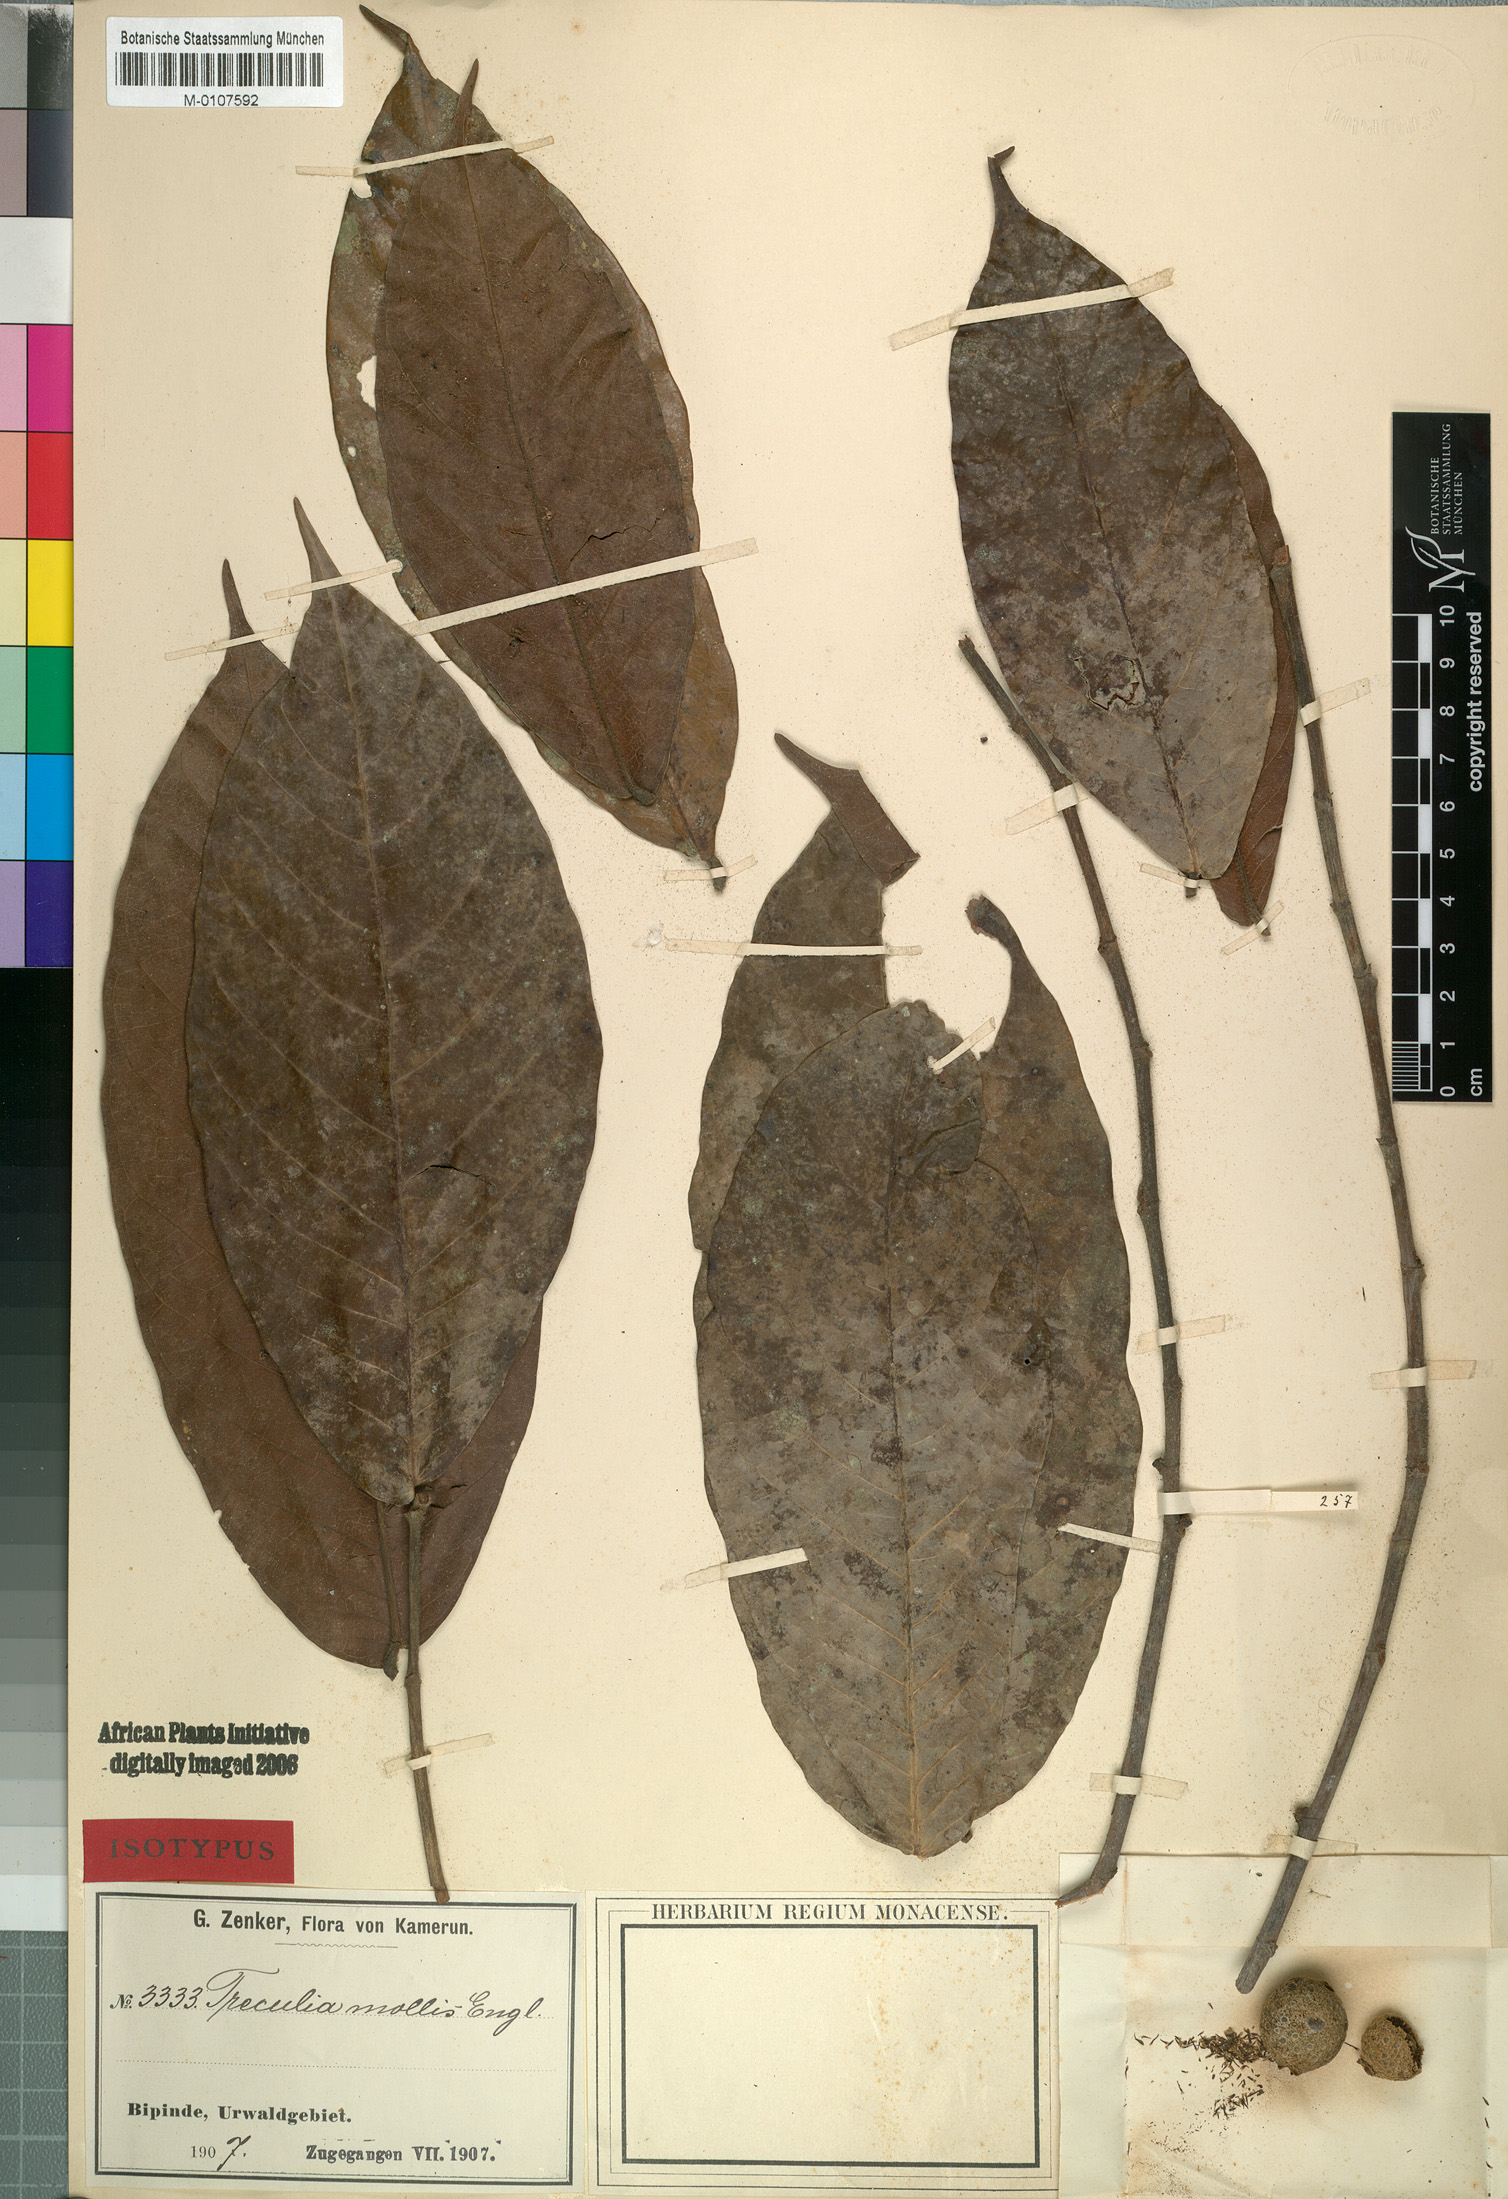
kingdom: Plantae
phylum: Tracheophyta
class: Magnoliopsida
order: Rosales
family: Moraceae
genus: Treculia
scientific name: Treculia africana
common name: African breadfruit
